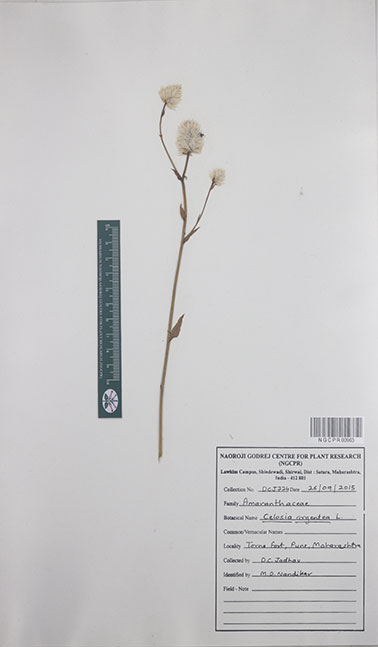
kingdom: Plantae
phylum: Tracheophyta
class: Magnoliopsida
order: Caryophyllales
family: Amaranthaceae
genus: Celosia
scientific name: Celosia argentea
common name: Feather cockscomb
